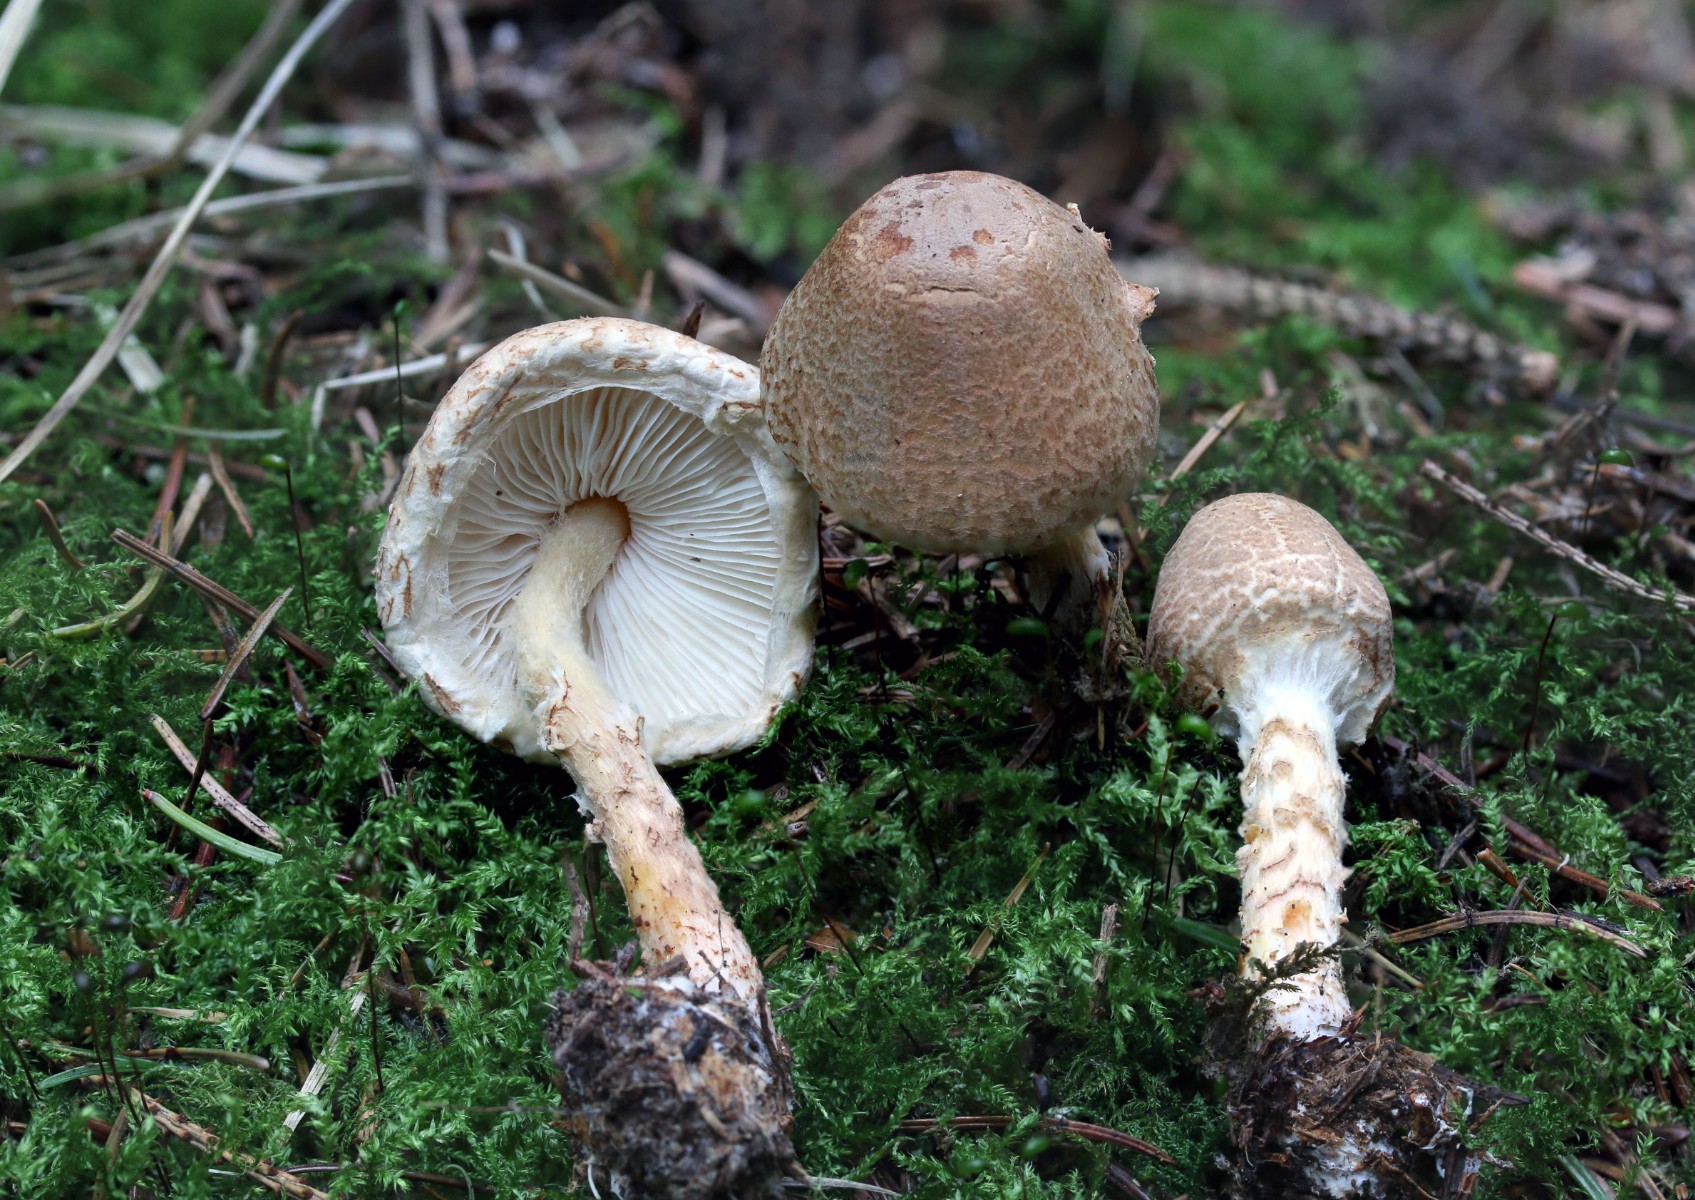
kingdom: Fungi
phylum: Basidiomycota
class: Agaricomycetes
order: Agaricales
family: Agaricaceae
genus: Lepiota
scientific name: Lepiota magnispora
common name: gulfnugget parasolhat
